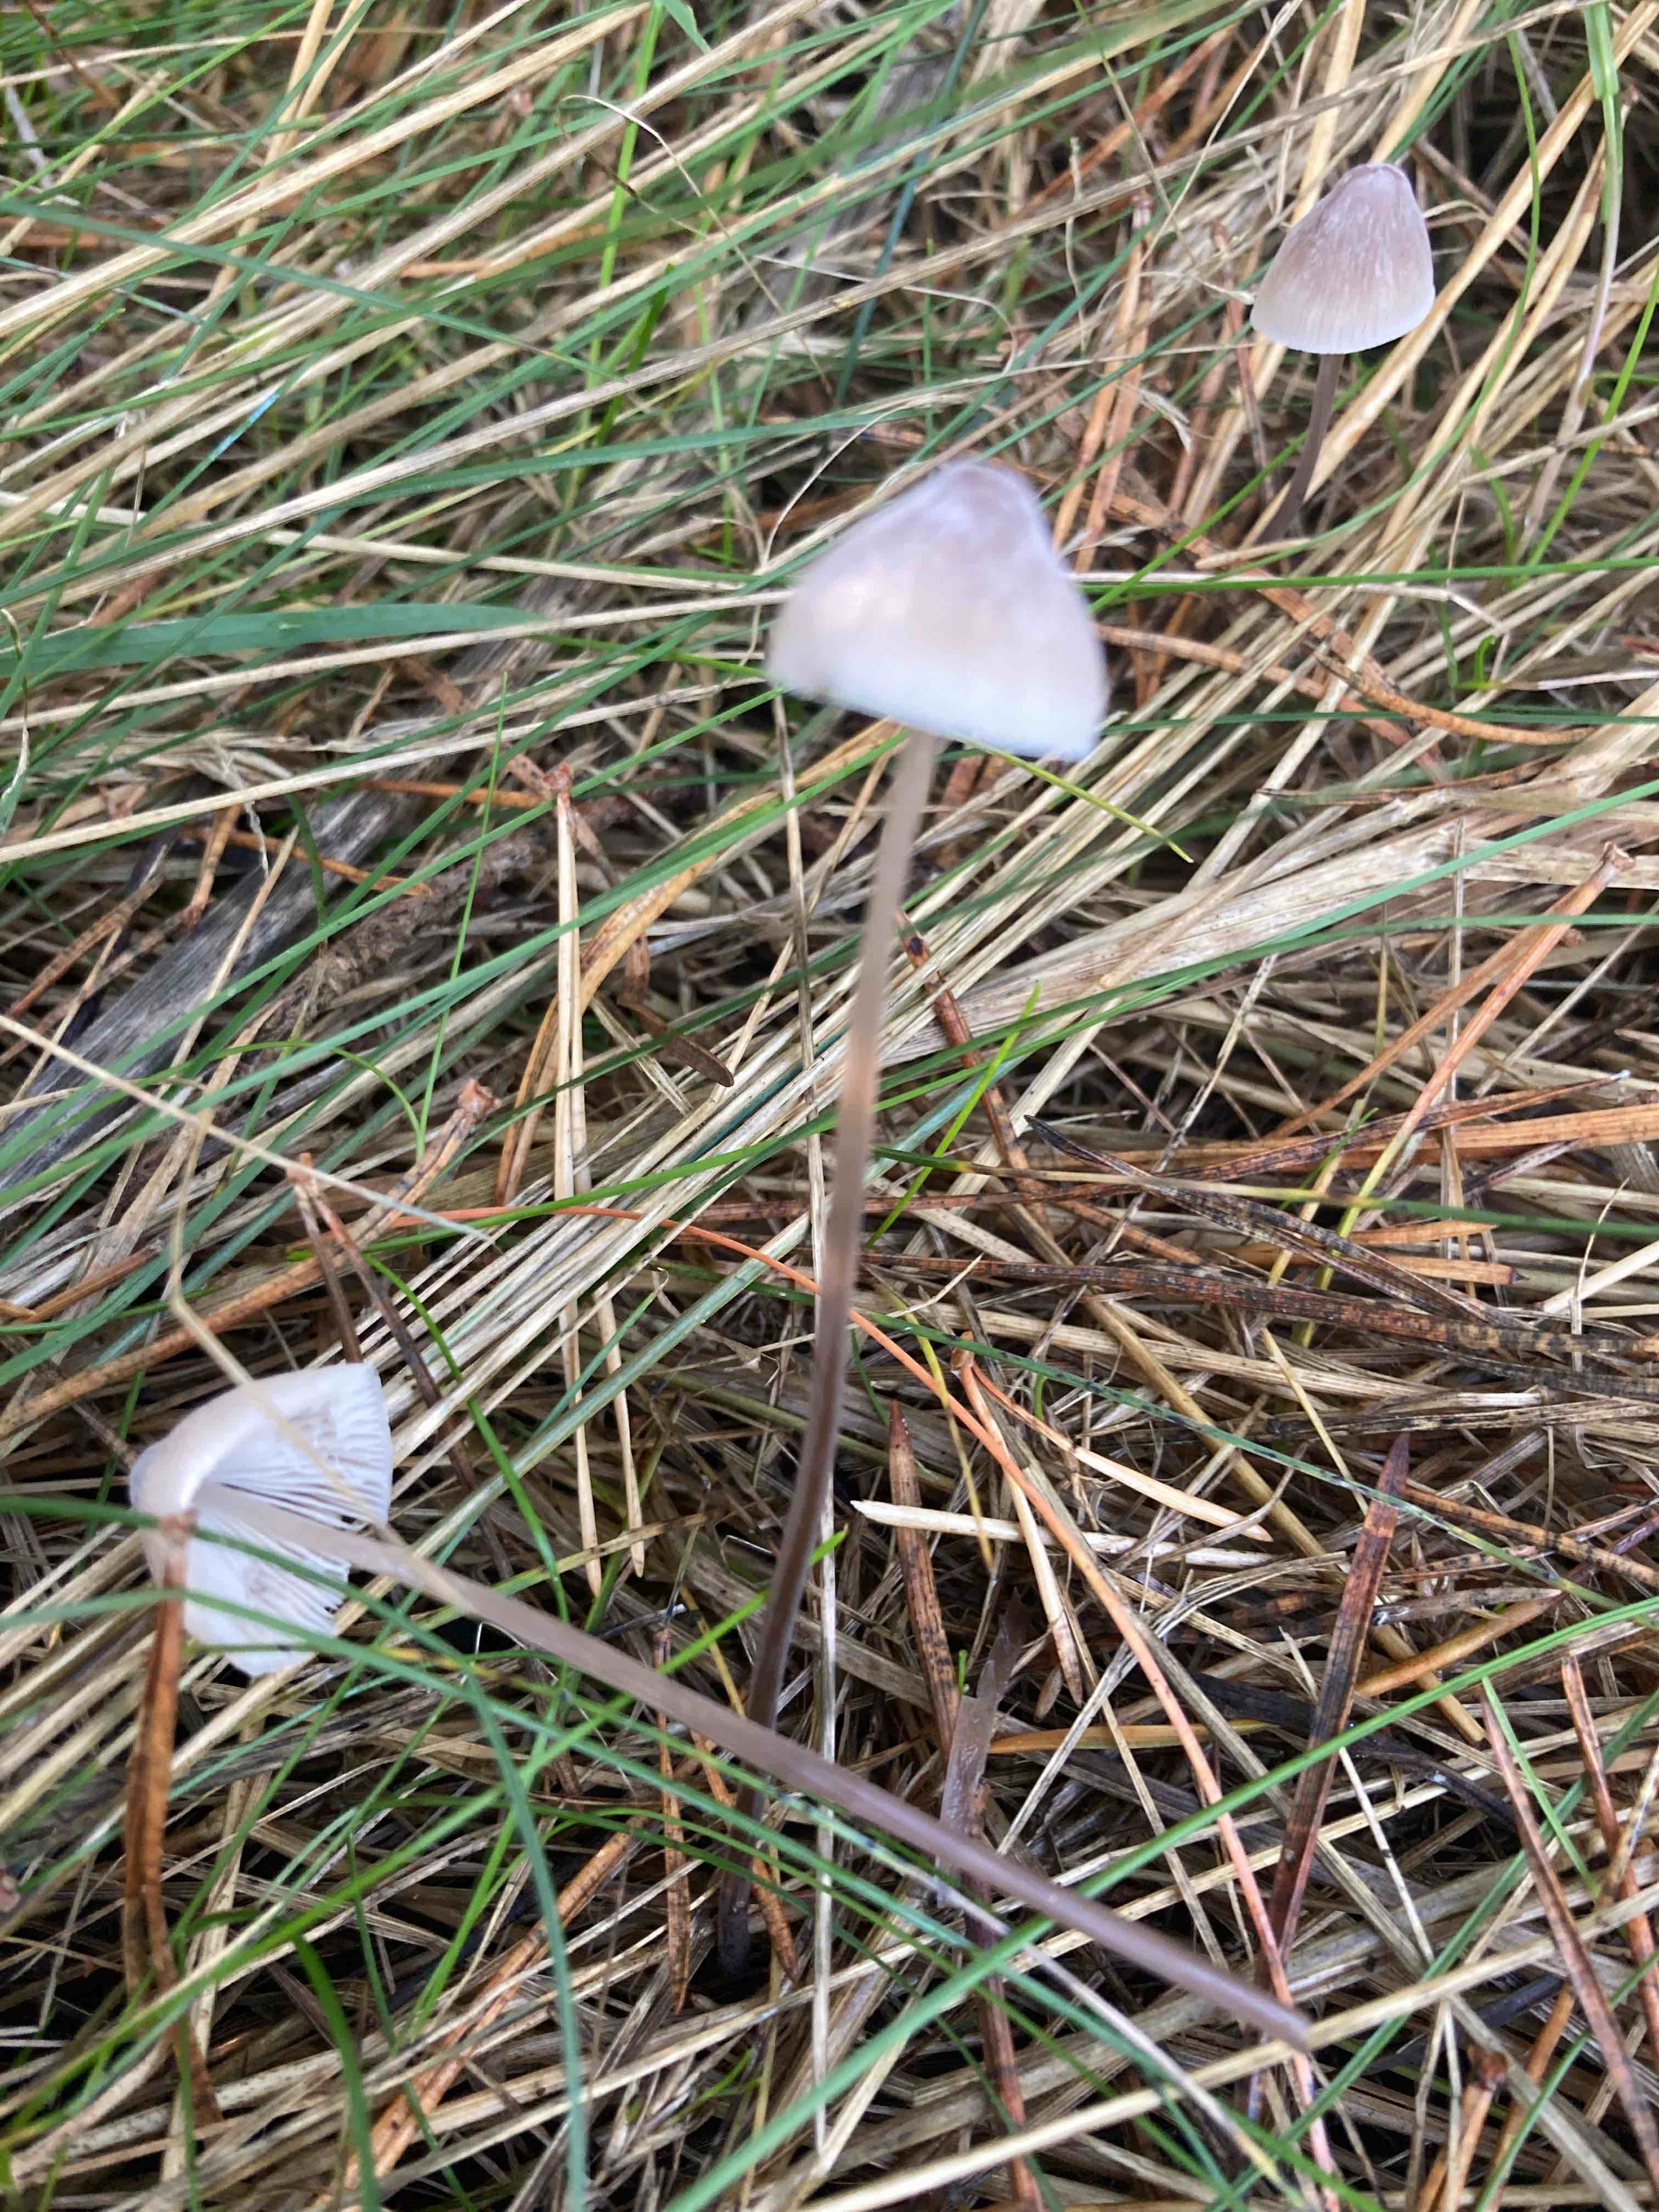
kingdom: Fungi
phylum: Basidiomycota
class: Agaricomycetes
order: Agaricales
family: Mycenaceae
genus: Mycena
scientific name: Mycena filopes
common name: jod-huesvamp
